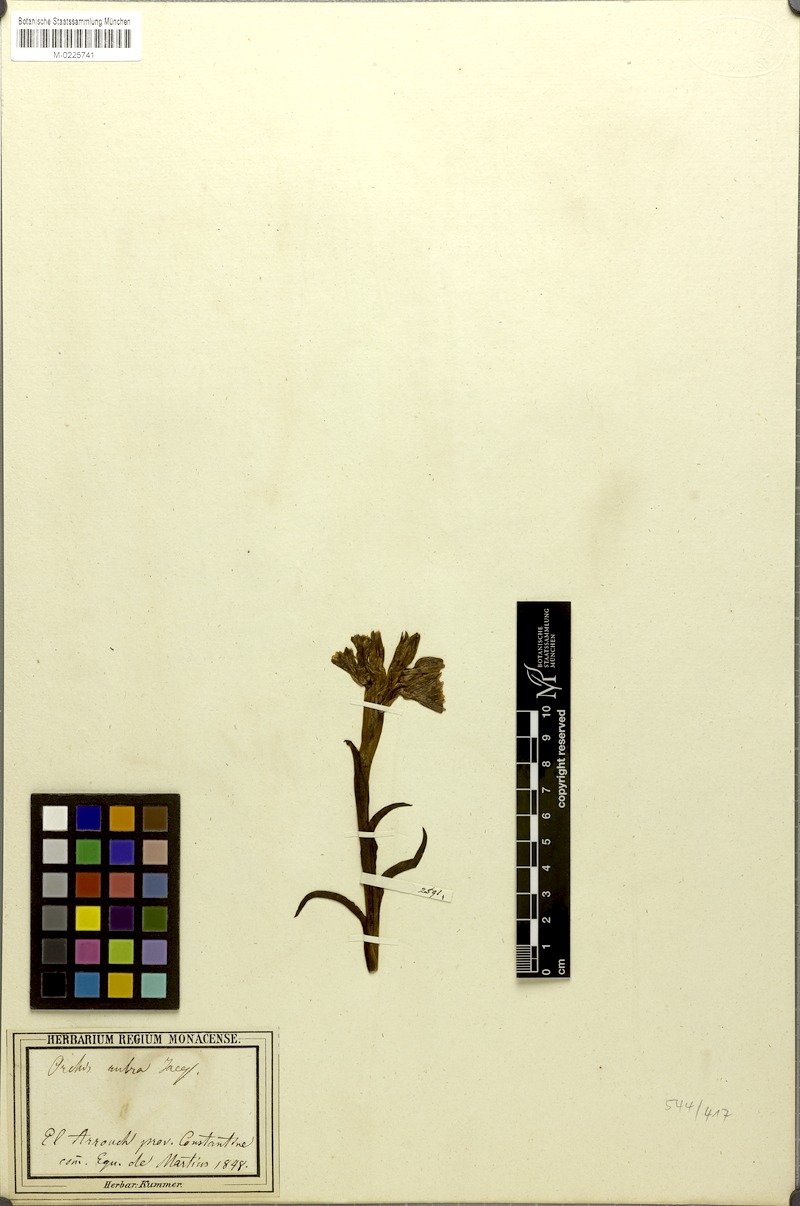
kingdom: Plantae
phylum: Tracheophyta
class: Liliopsida
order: Asparagales
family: Orchidaceae
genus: Anacamptis
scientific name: Anacamptis papilionacea
